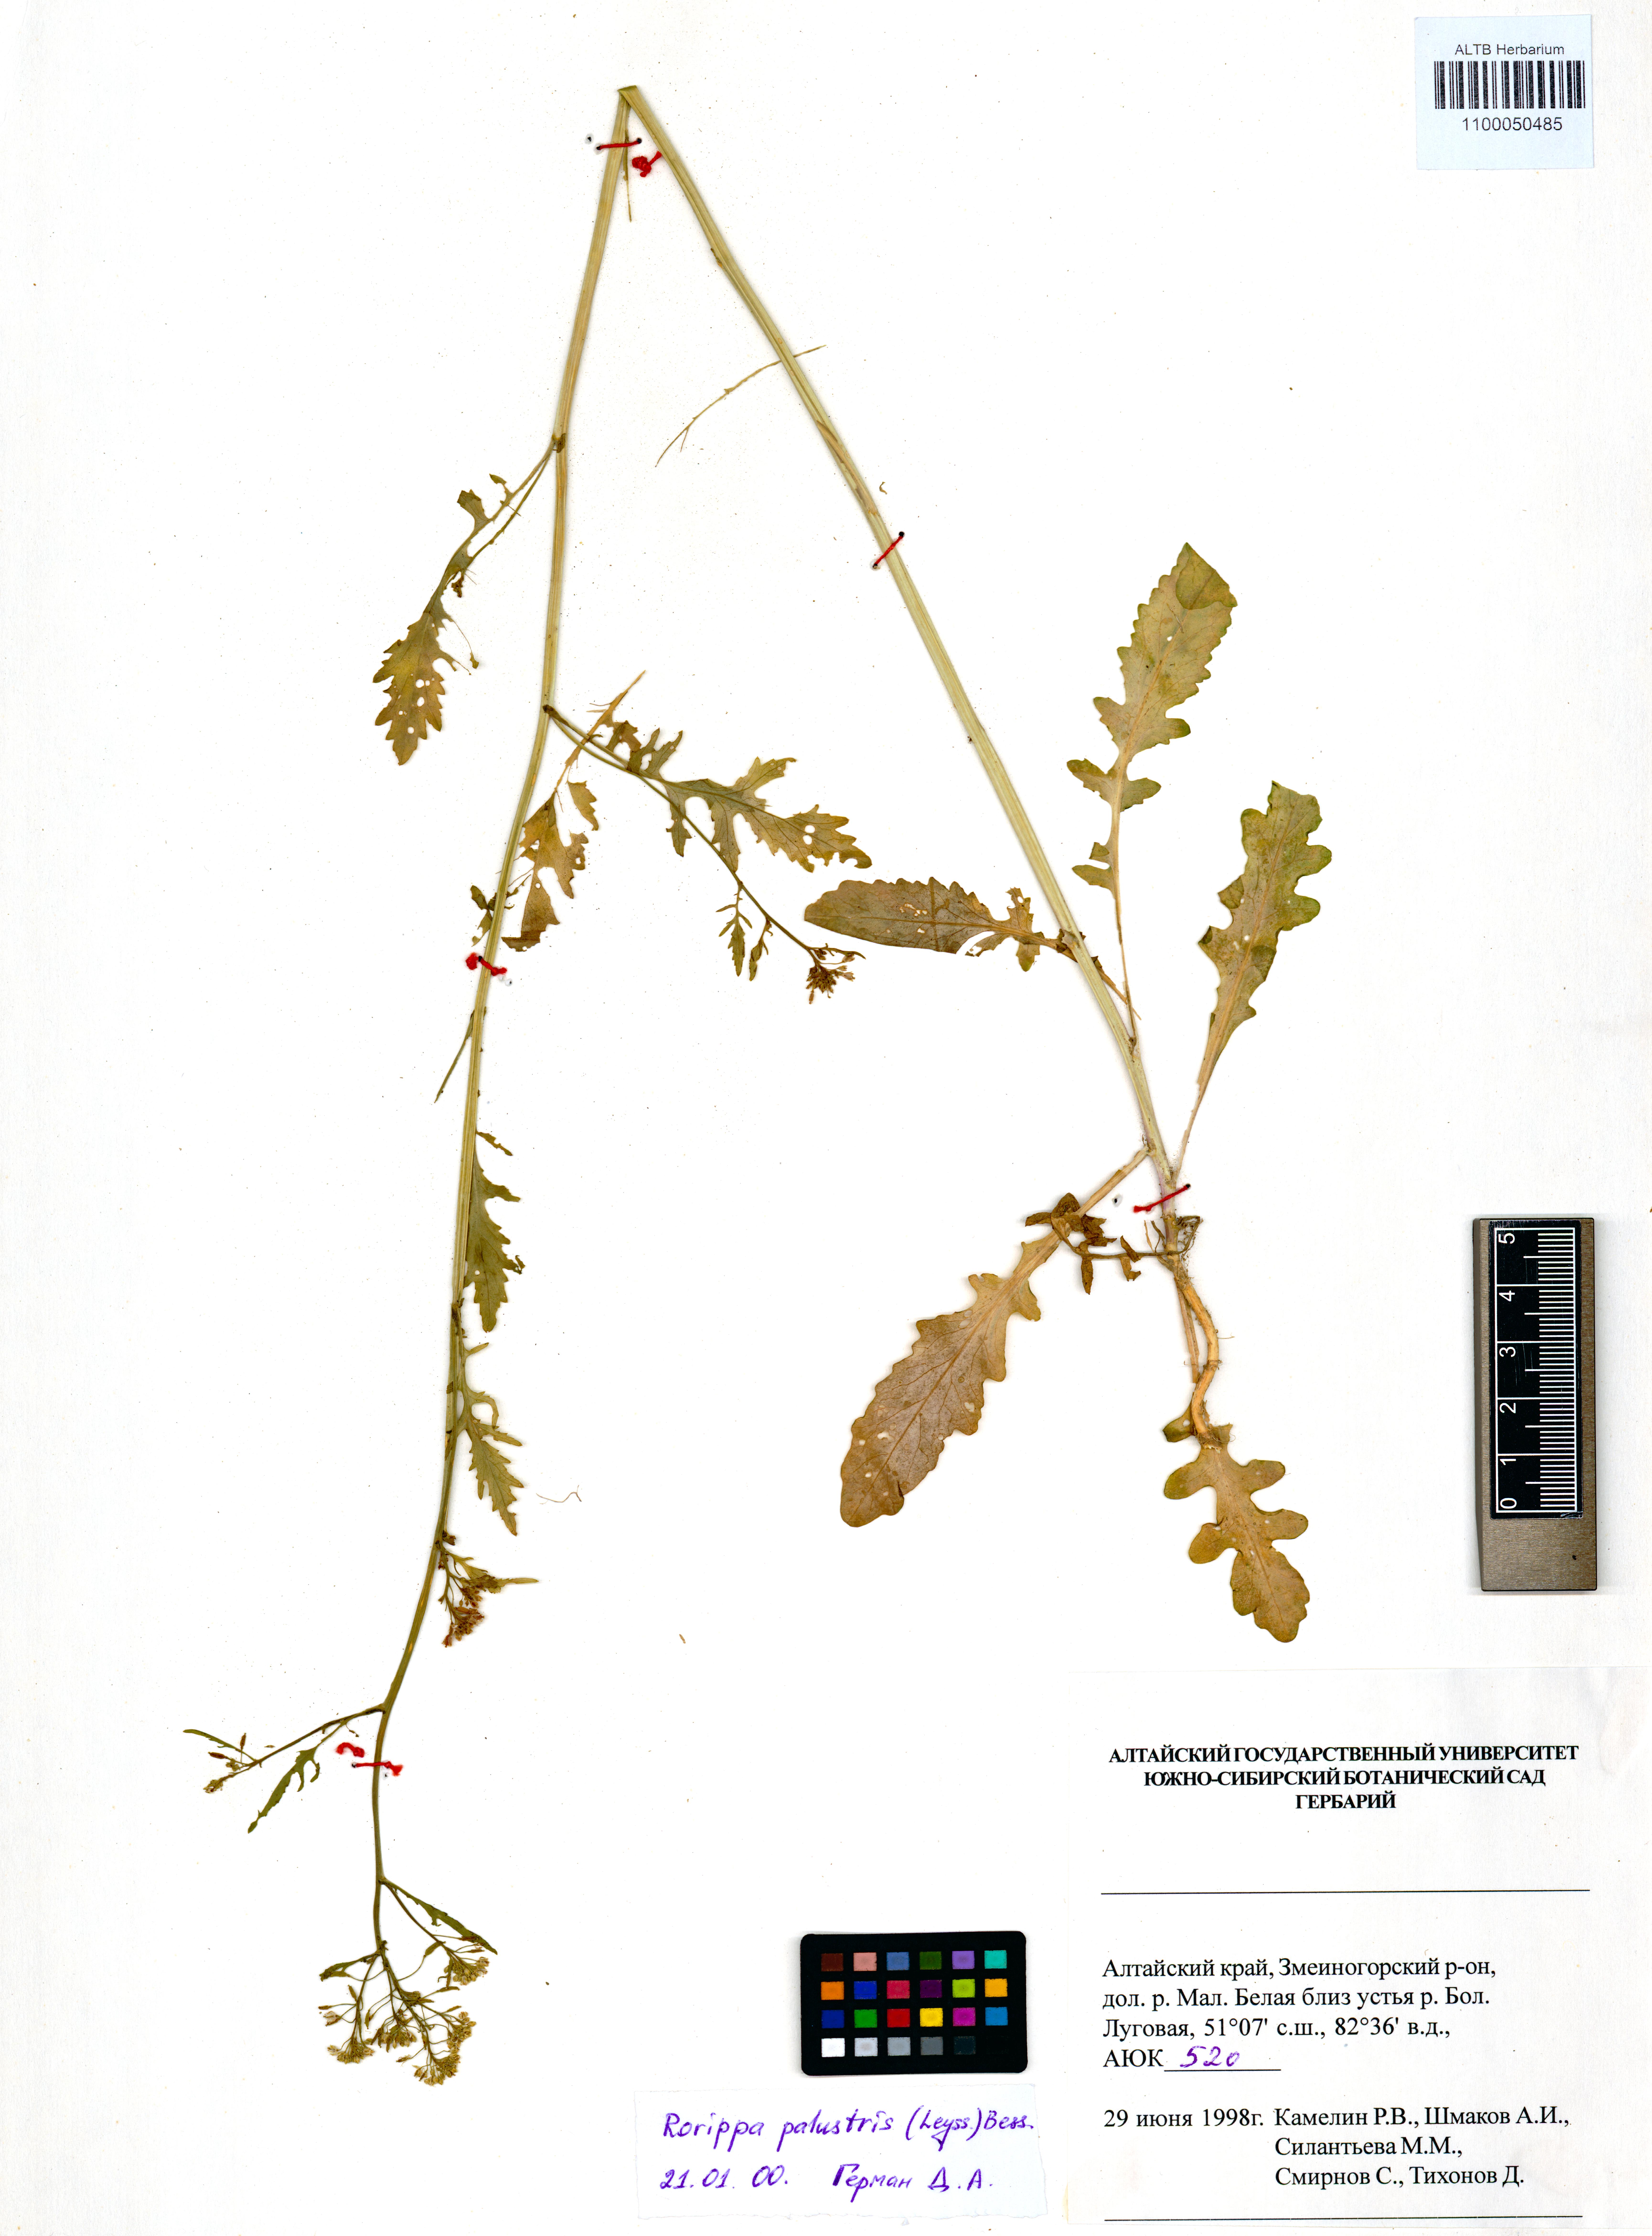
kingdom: Plantae
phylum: Tracheophyta
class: Magnoliopsida
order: Brassicales
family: Brassicaceae
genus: Rorippa
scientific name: Rorippa palustris
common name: Marsh yellow-cress
